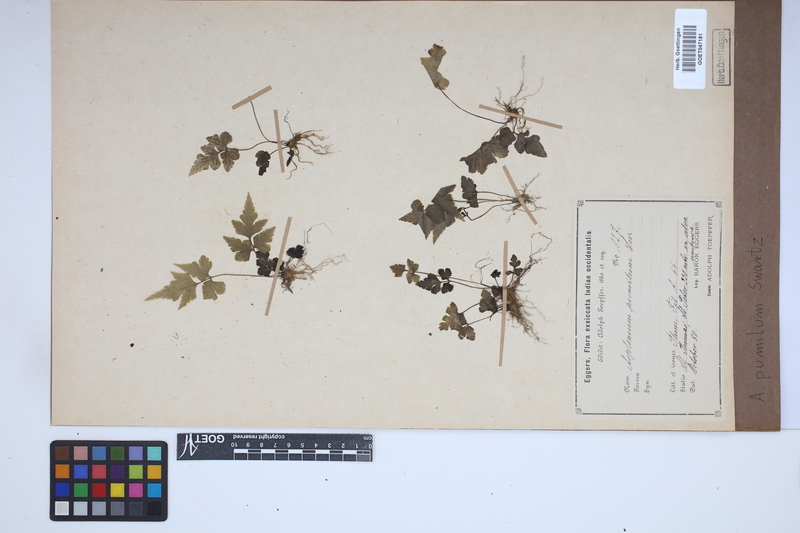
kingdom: Plantae
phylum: Tracheophyta
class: Polypodiopsida
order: Polypodiales
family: Aspleniaceae
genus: Asplenium
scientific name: Asplenium pumilum
